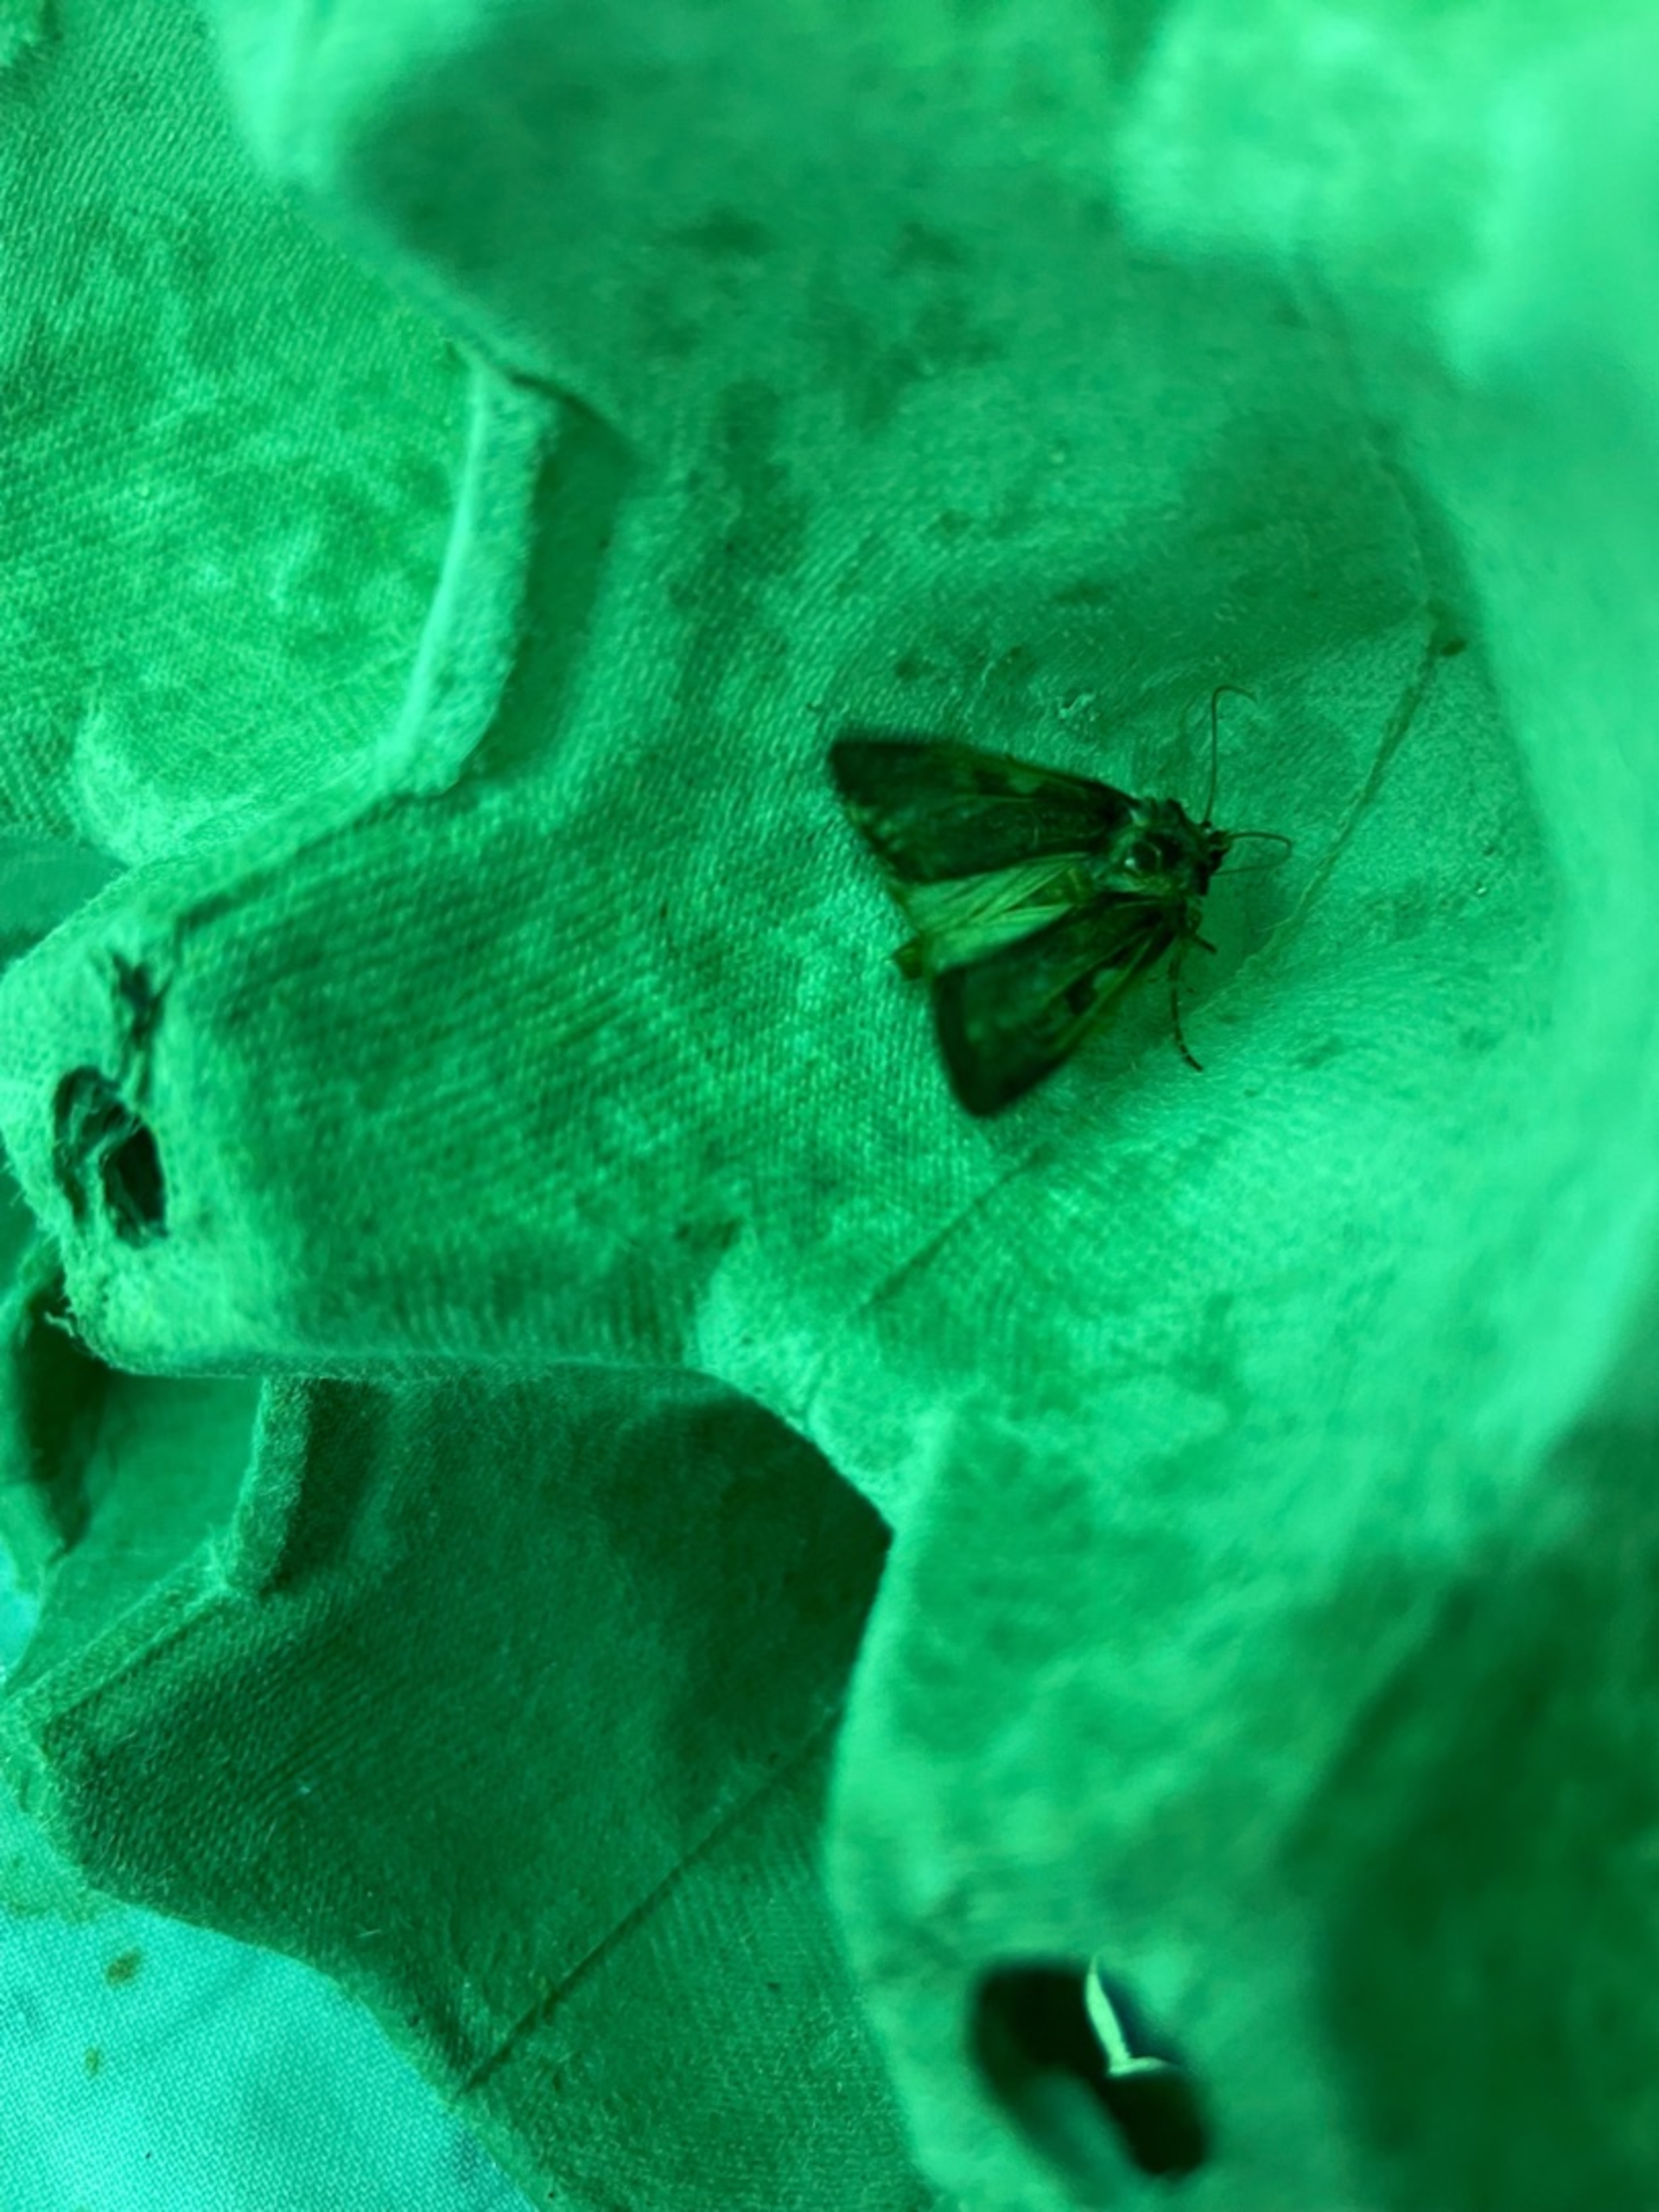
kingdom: Animalia
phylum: Arthropoda
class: Insecta
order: Lepidoptera
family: Noctuidae
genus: Xestia
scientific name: Xestia c-nigrum
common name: Det sorte c
